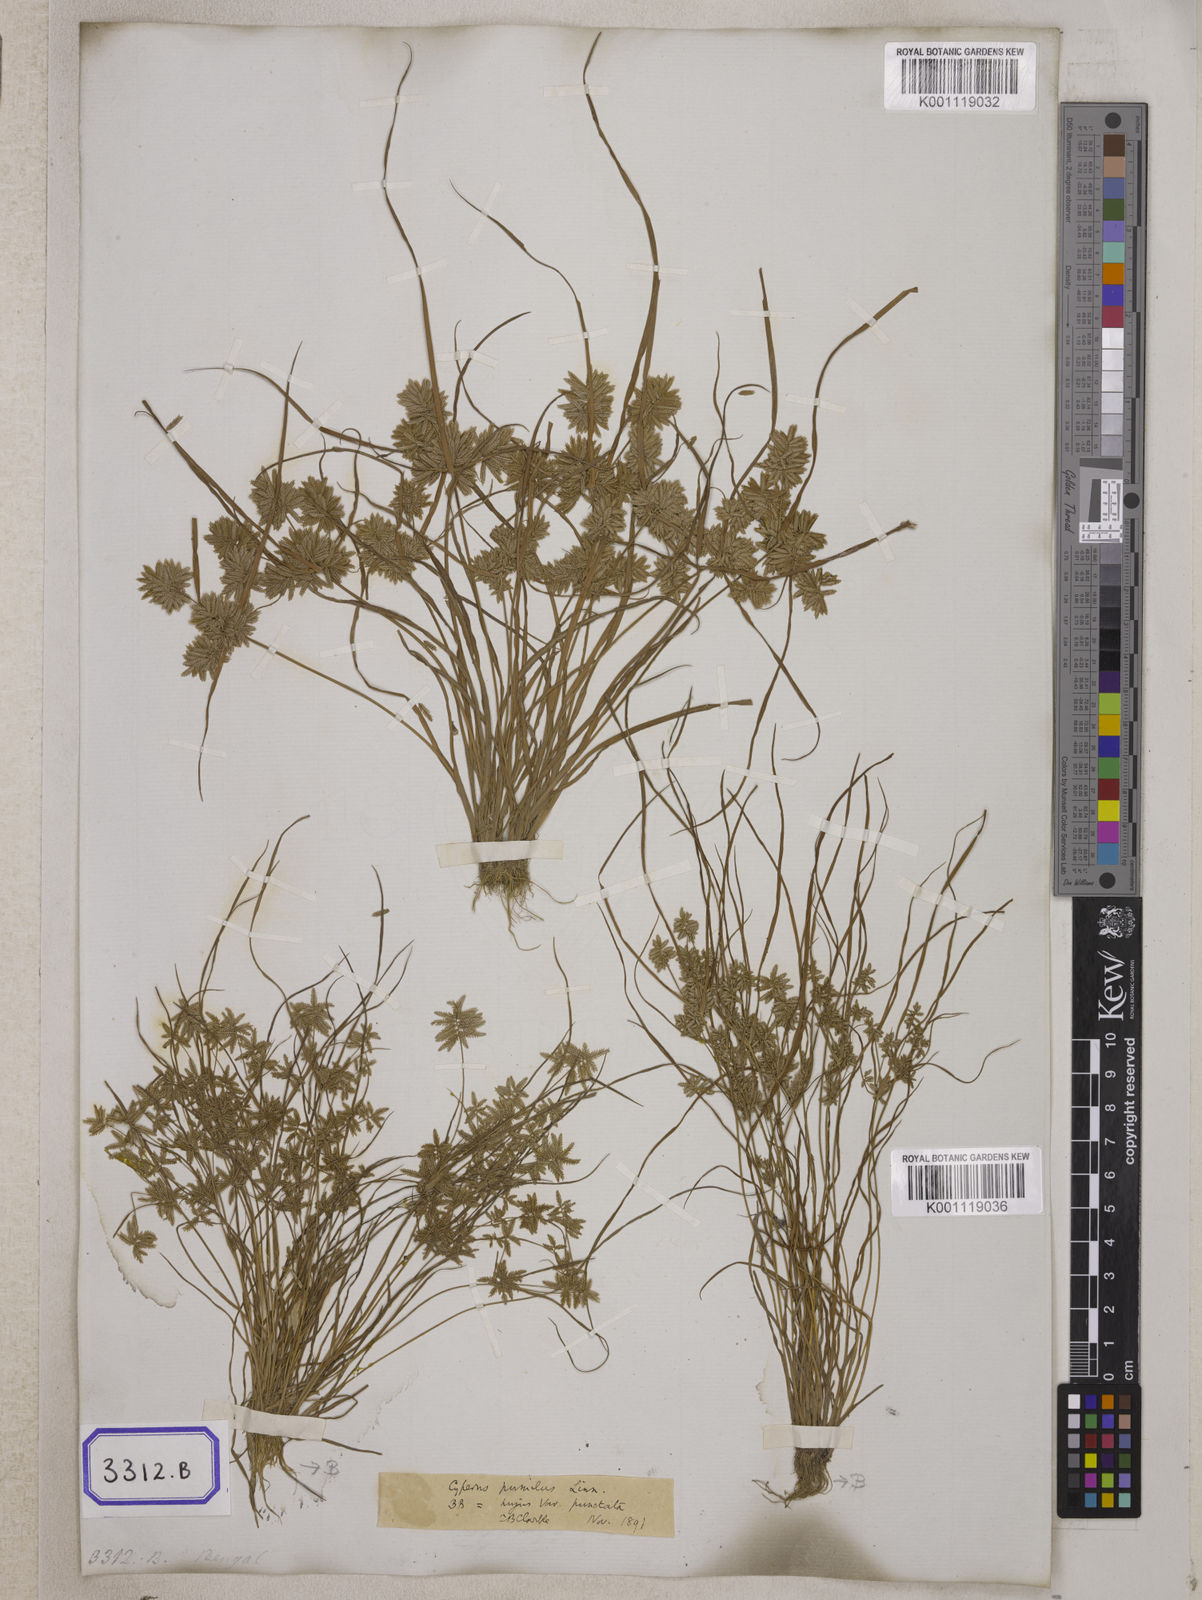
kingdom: Plantae
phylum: Tracheophyta
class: Liliopsida
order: Poales
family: Cyperaceae
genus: Cyperus
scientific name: Cyperus
